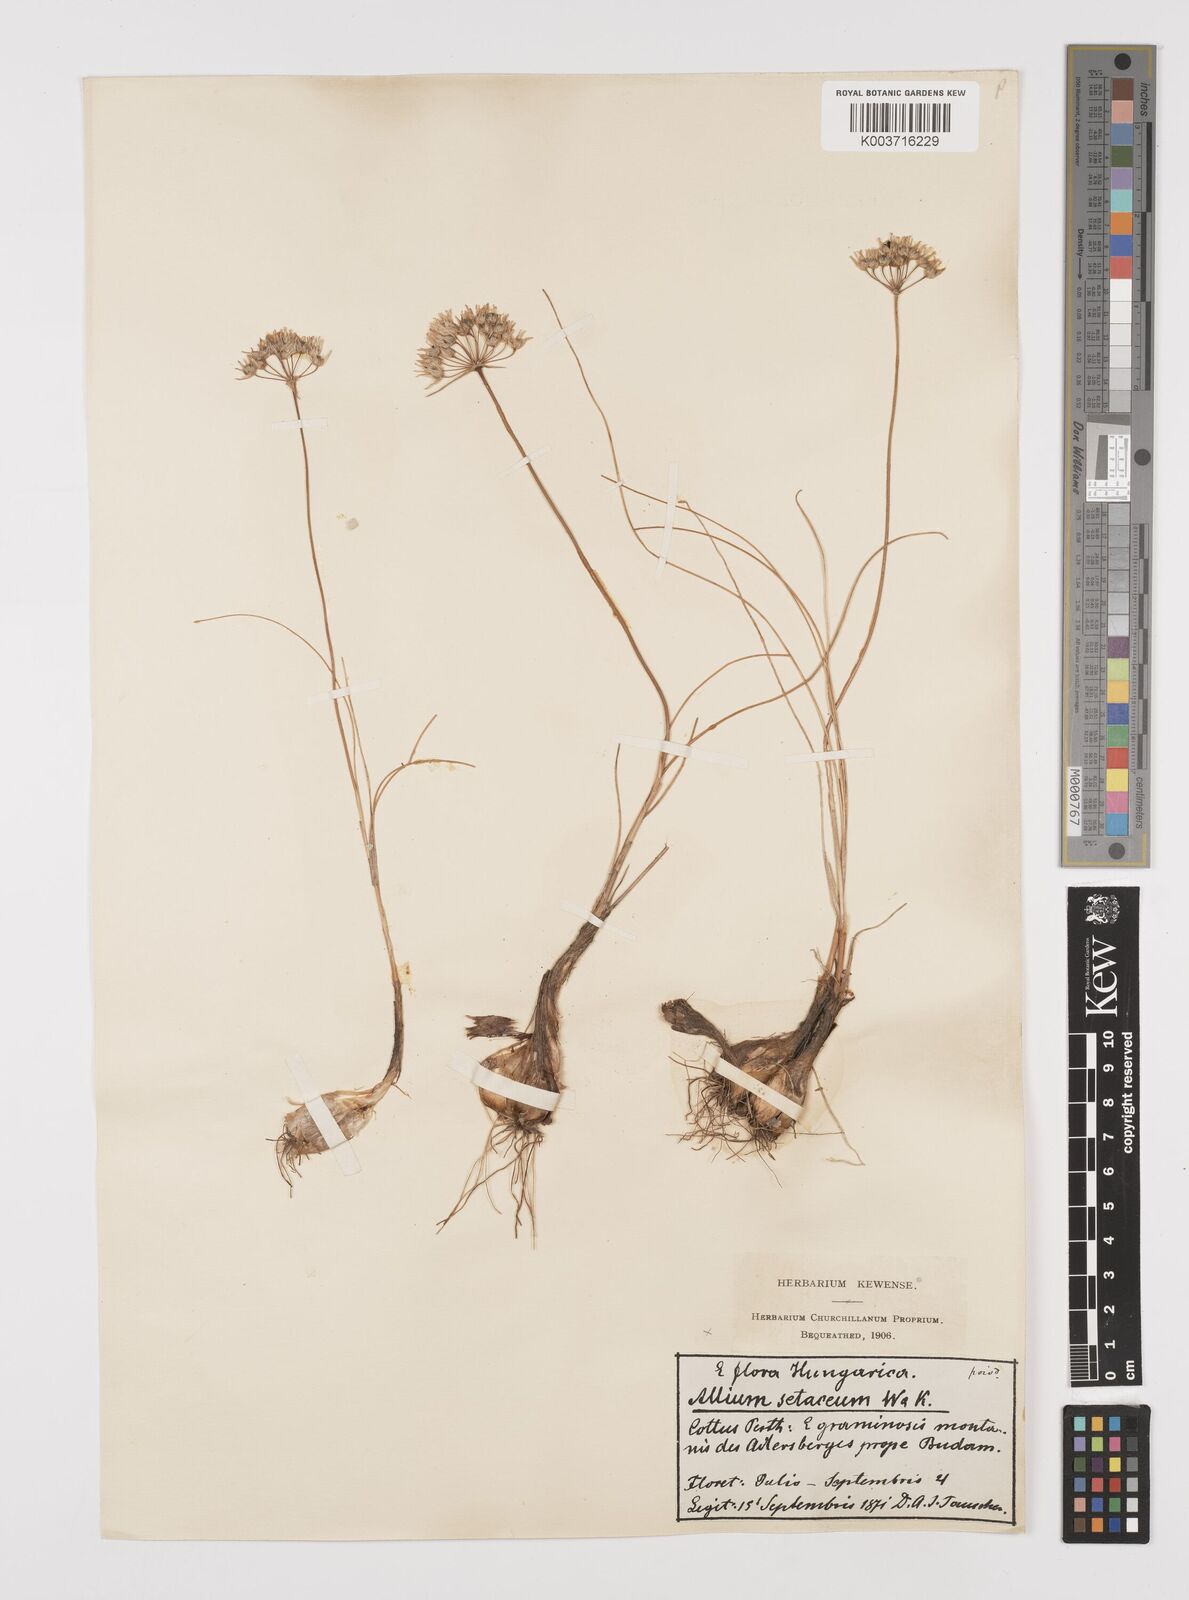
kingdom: Plantae
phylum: Tracheophyta
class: Liliopsida
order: Asparagales
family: Amaryllidaceae
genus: Allium
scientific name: Allium moschatum
